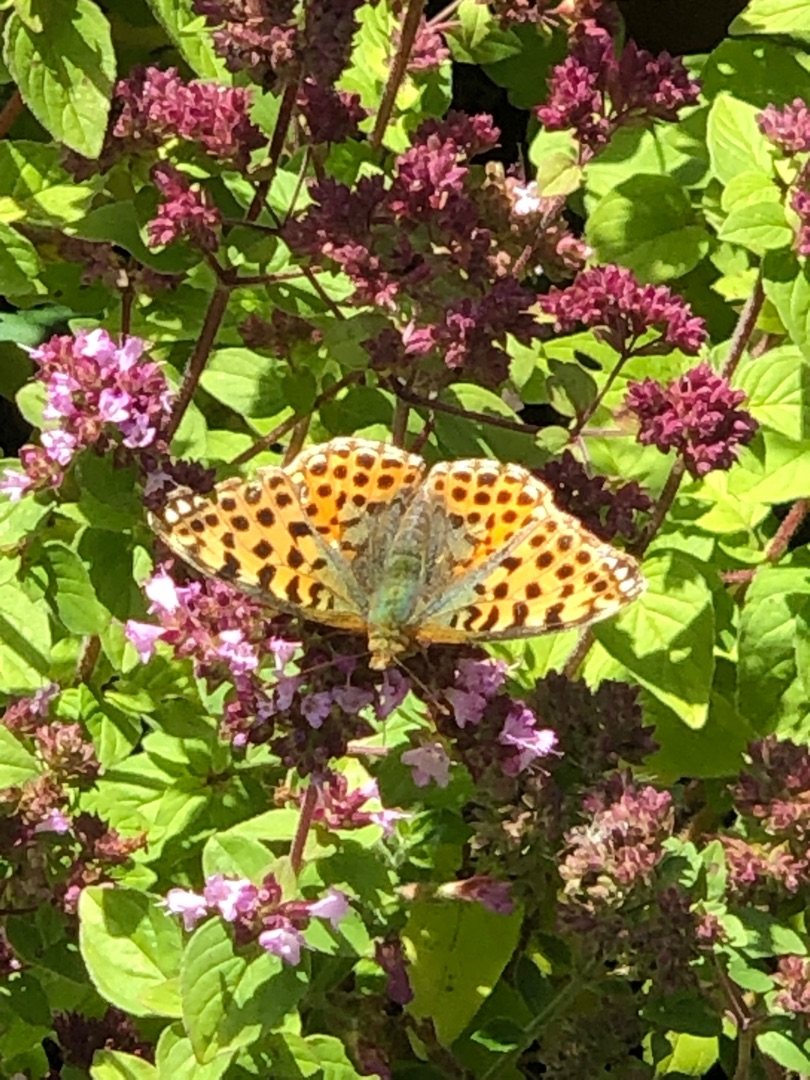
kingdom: Animalia
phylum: Arthropoda
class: Insecta
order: Lepidoptera
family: Nymphalidae
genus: Issoria
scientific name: Issoria lathonia
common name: Storplettet perlemorsommerfugl
